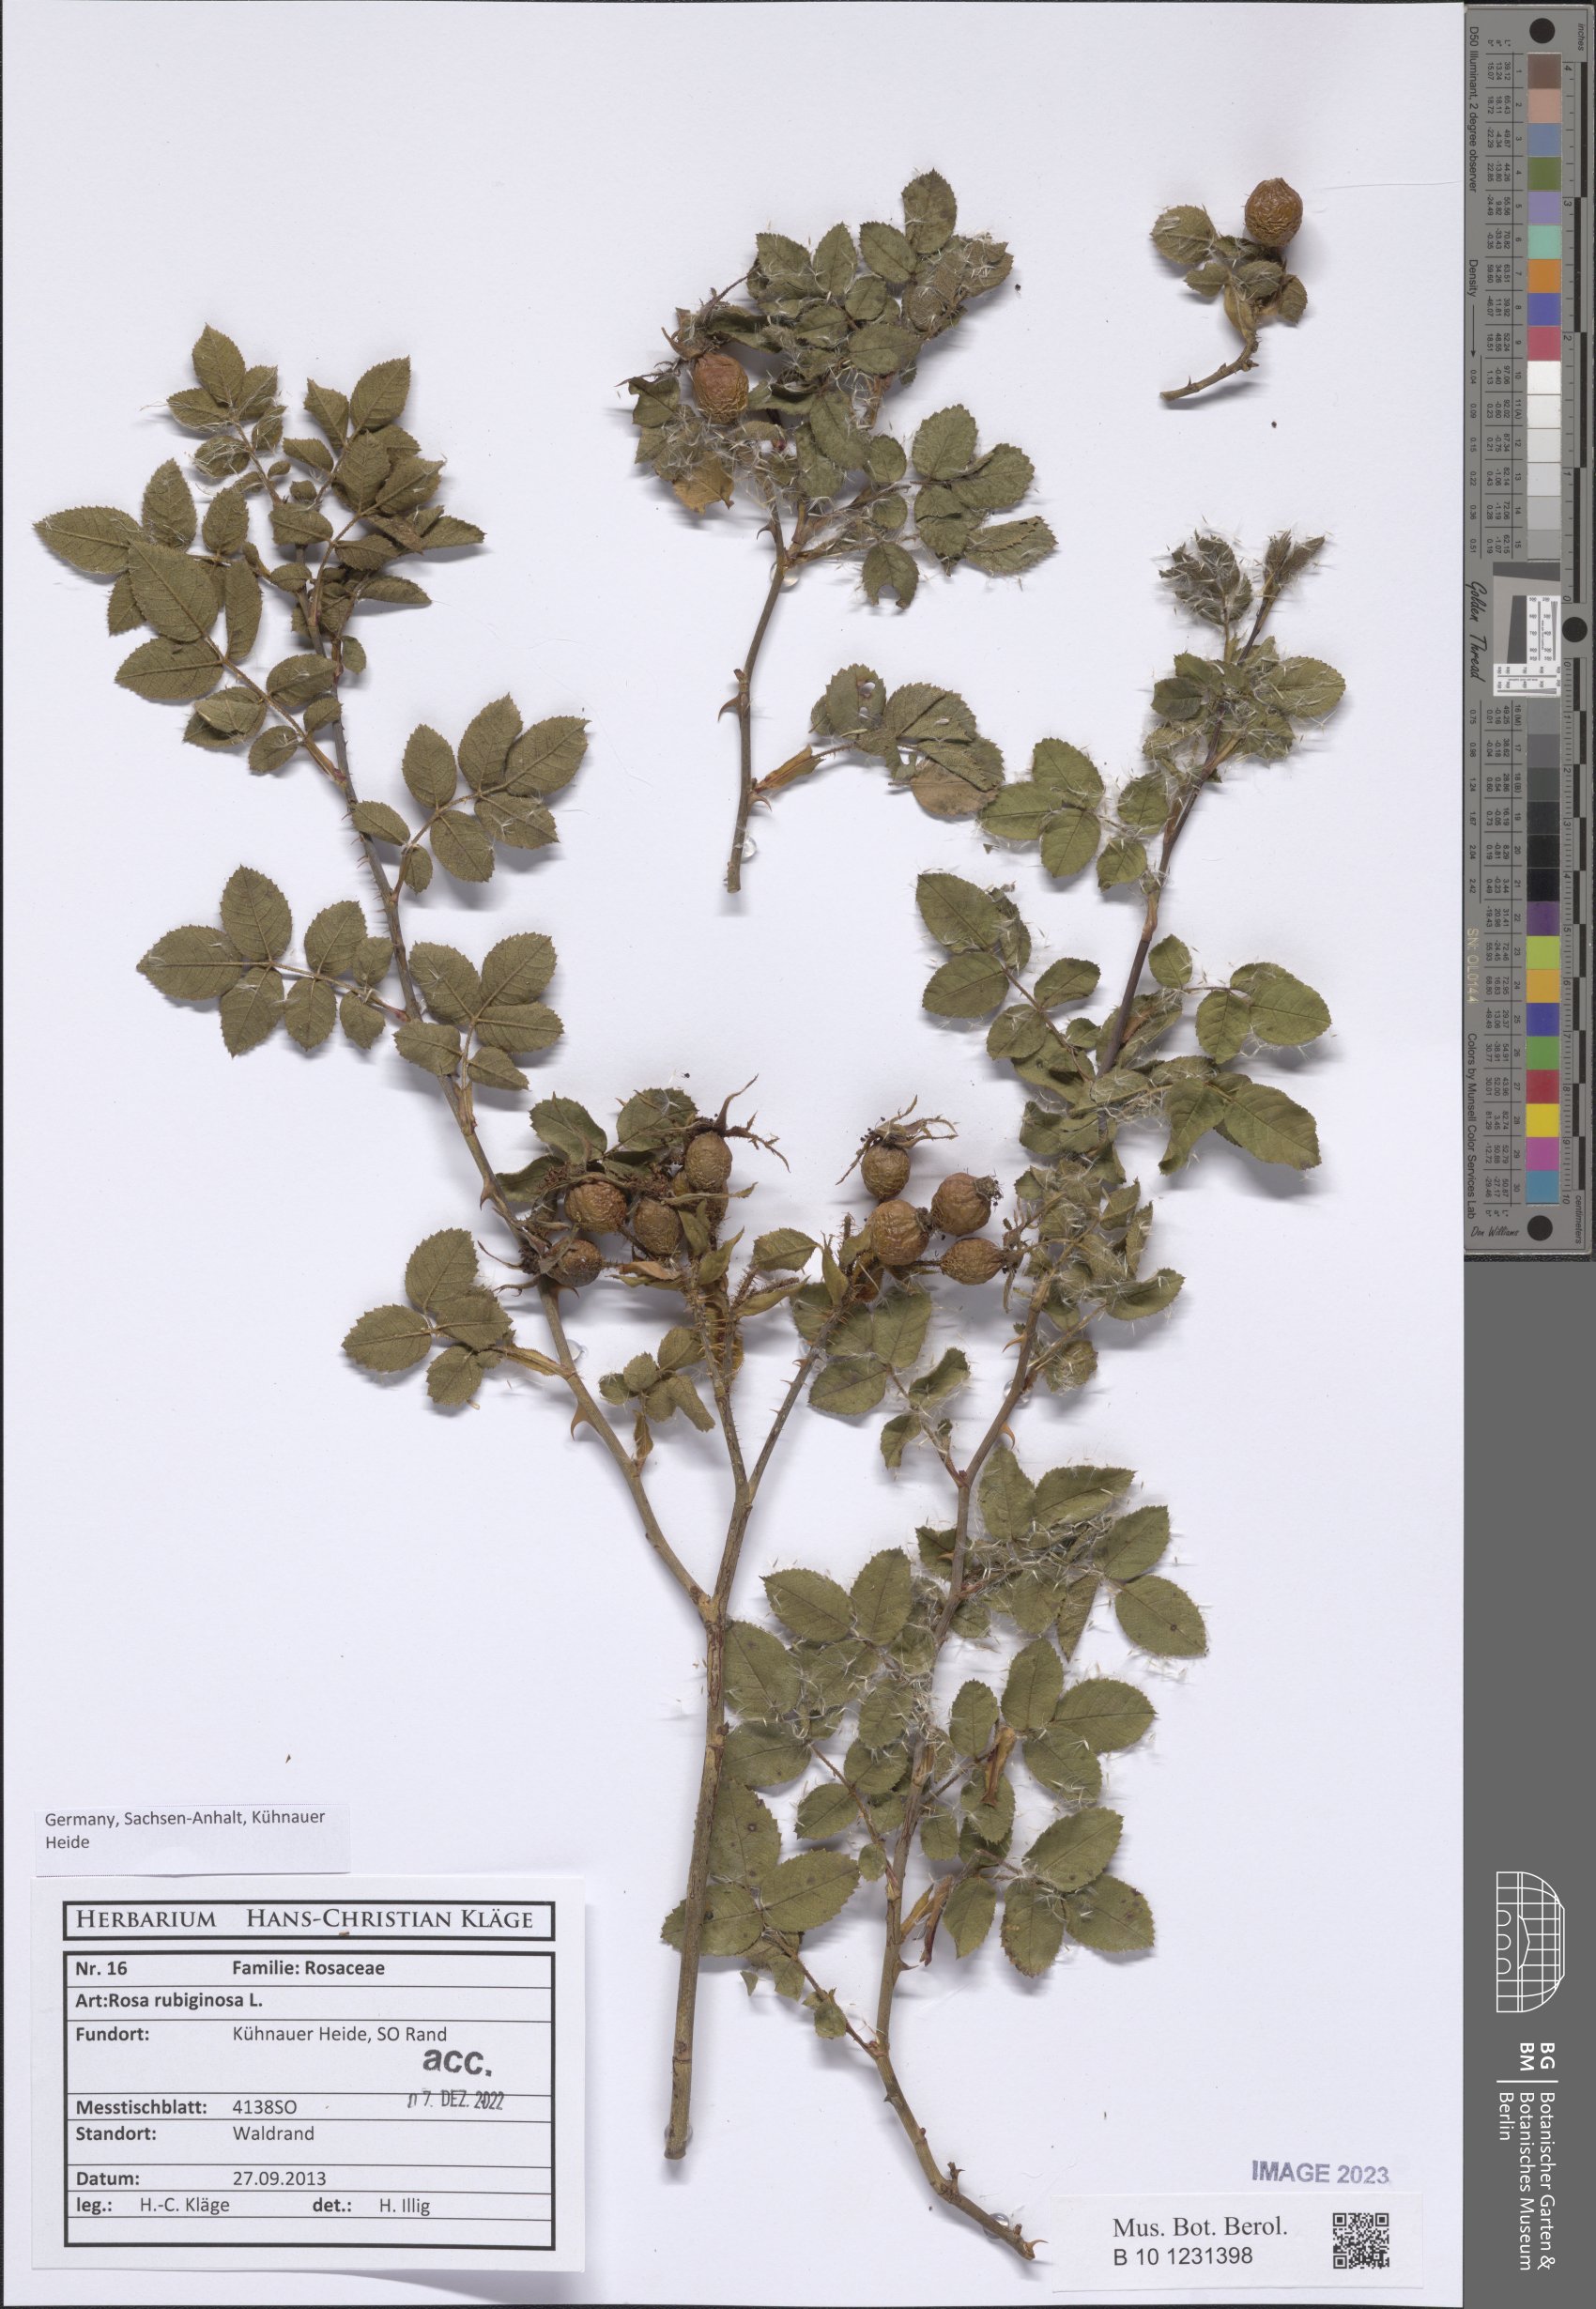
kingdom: Plantae
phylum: Tracheophyta
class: Magnoliopsida
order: Rosales
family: Rosaceae
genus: Rosa
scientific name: Rosa rubiginosa
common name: Sweet-briar
